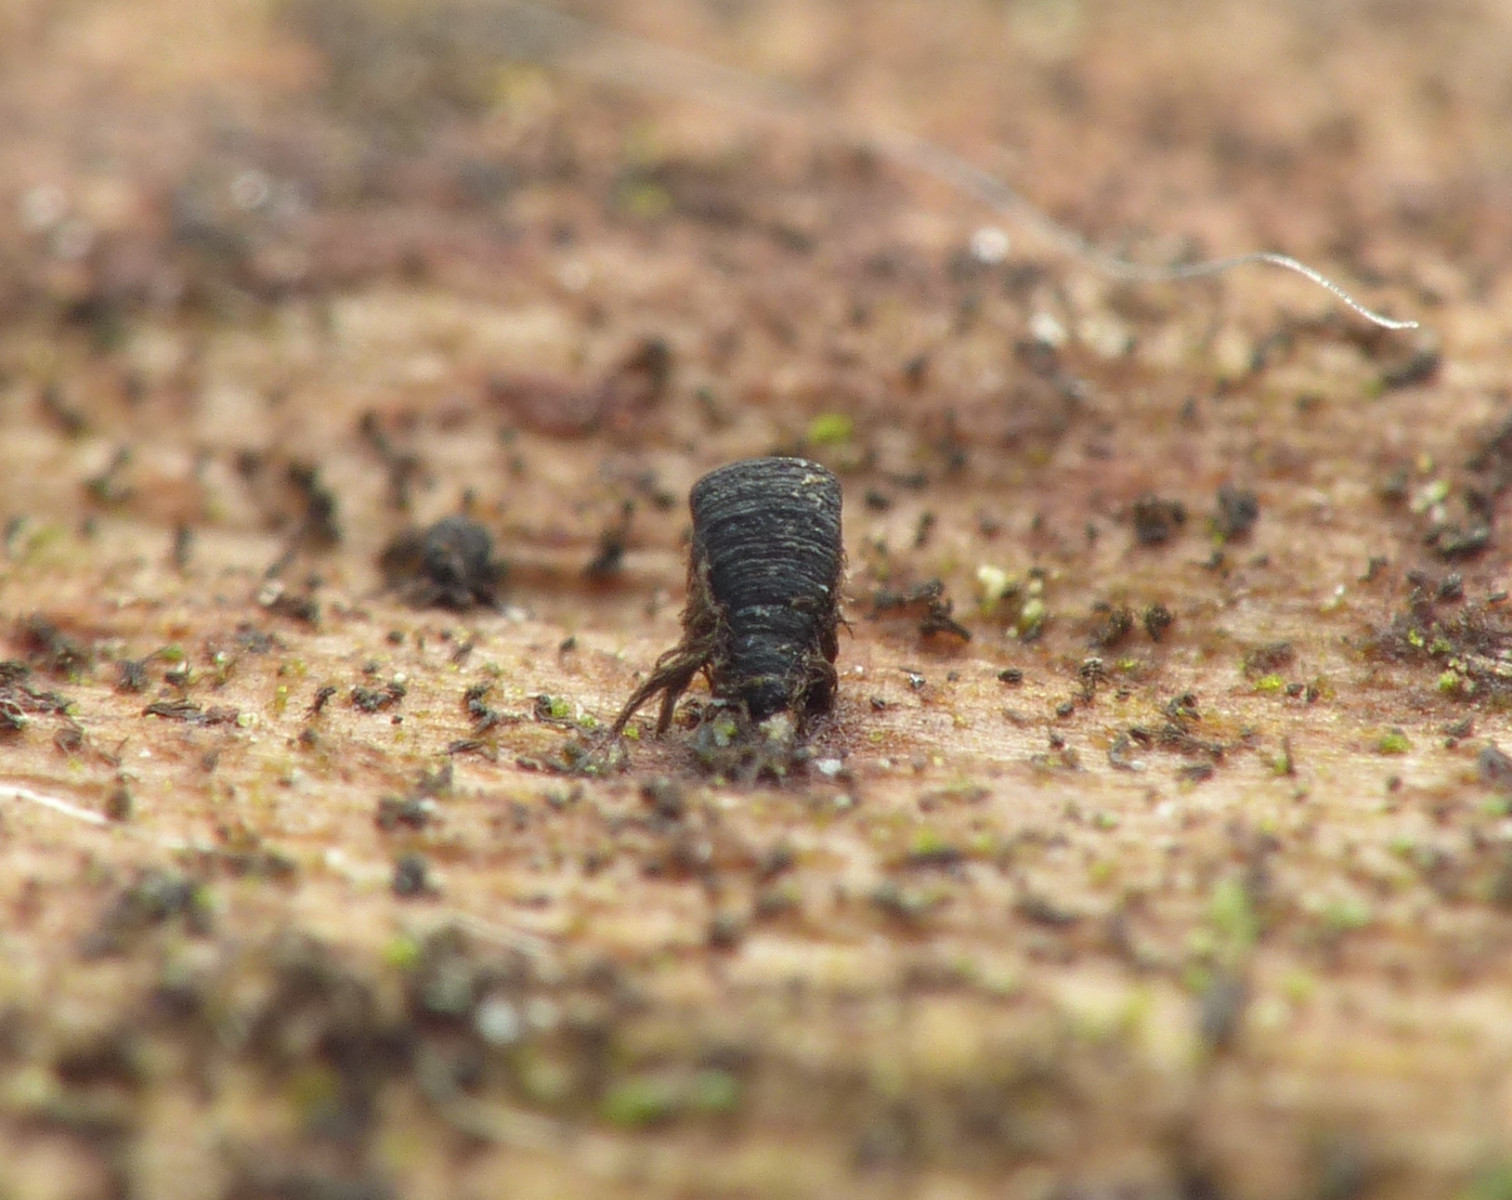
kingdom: Fungi
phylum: Ascomycota
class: Eurotiomycetes
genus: Glyphium
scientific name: Glyphium elatum
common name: kuløkse
